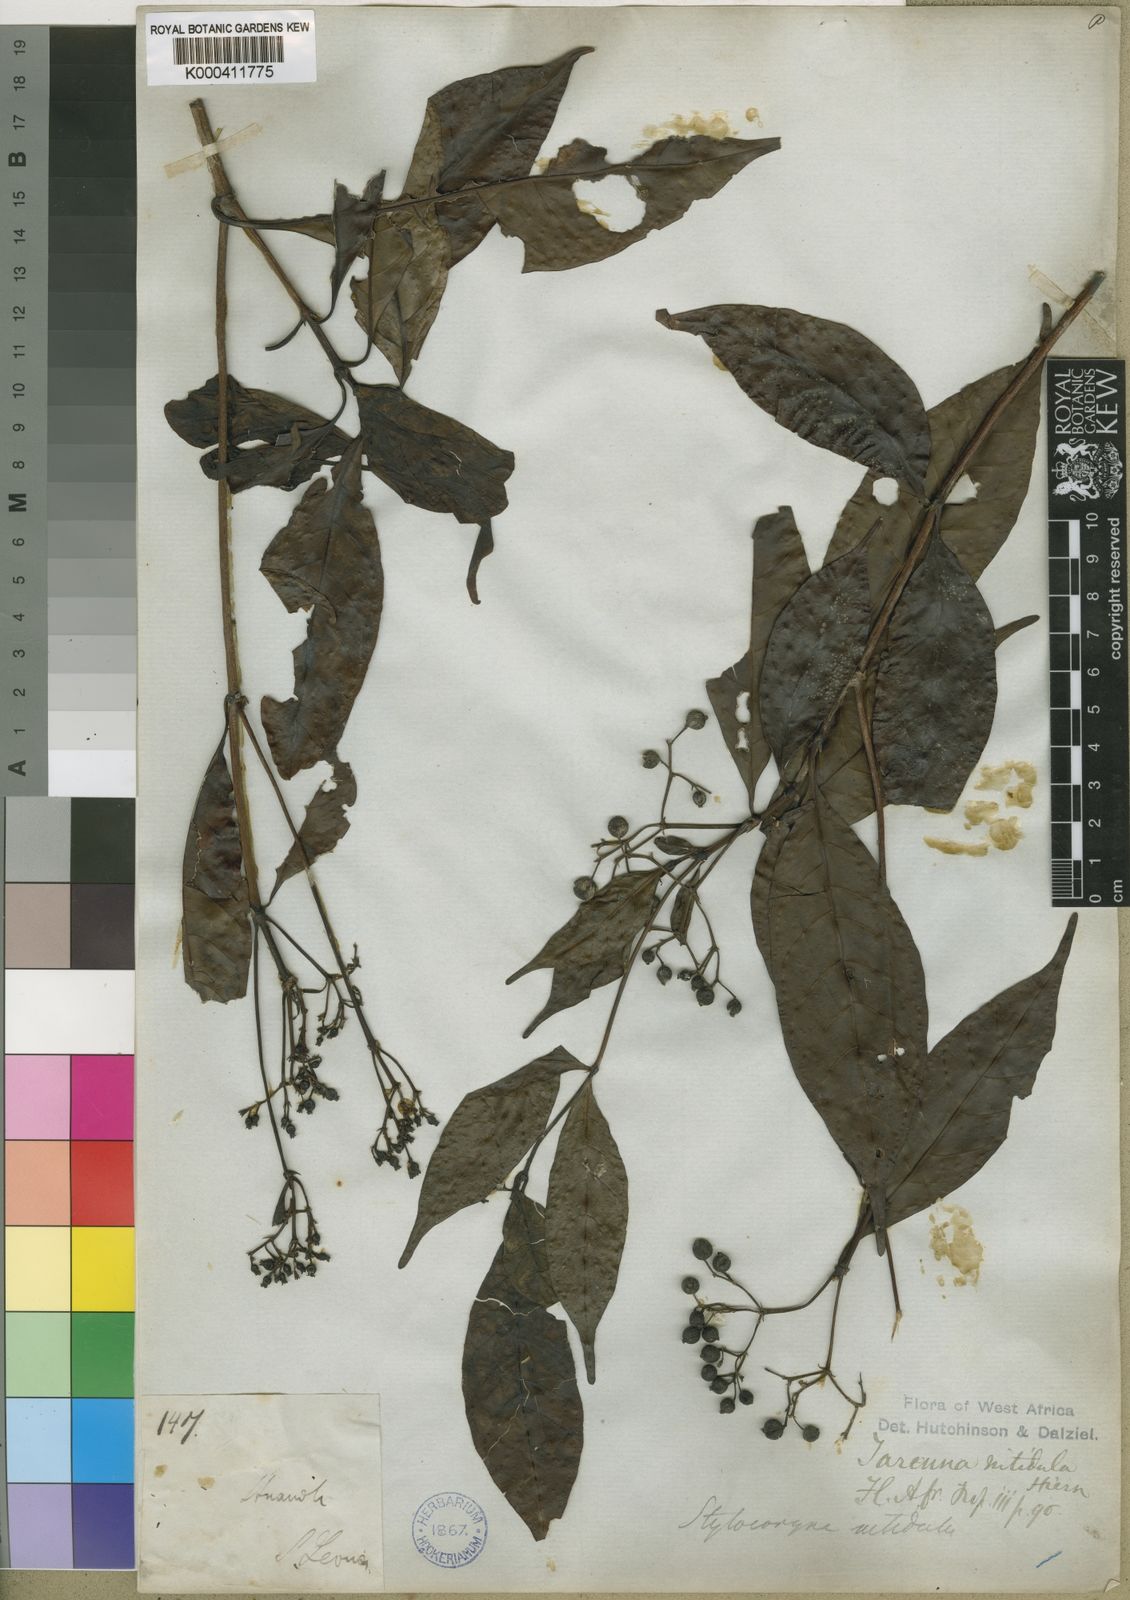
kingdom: Plantae
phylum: Tracheophyta
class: Magnoliopsida
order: Gentianales
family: Rubiaceae
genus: Tarenna
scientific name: Tarenna nitidula
